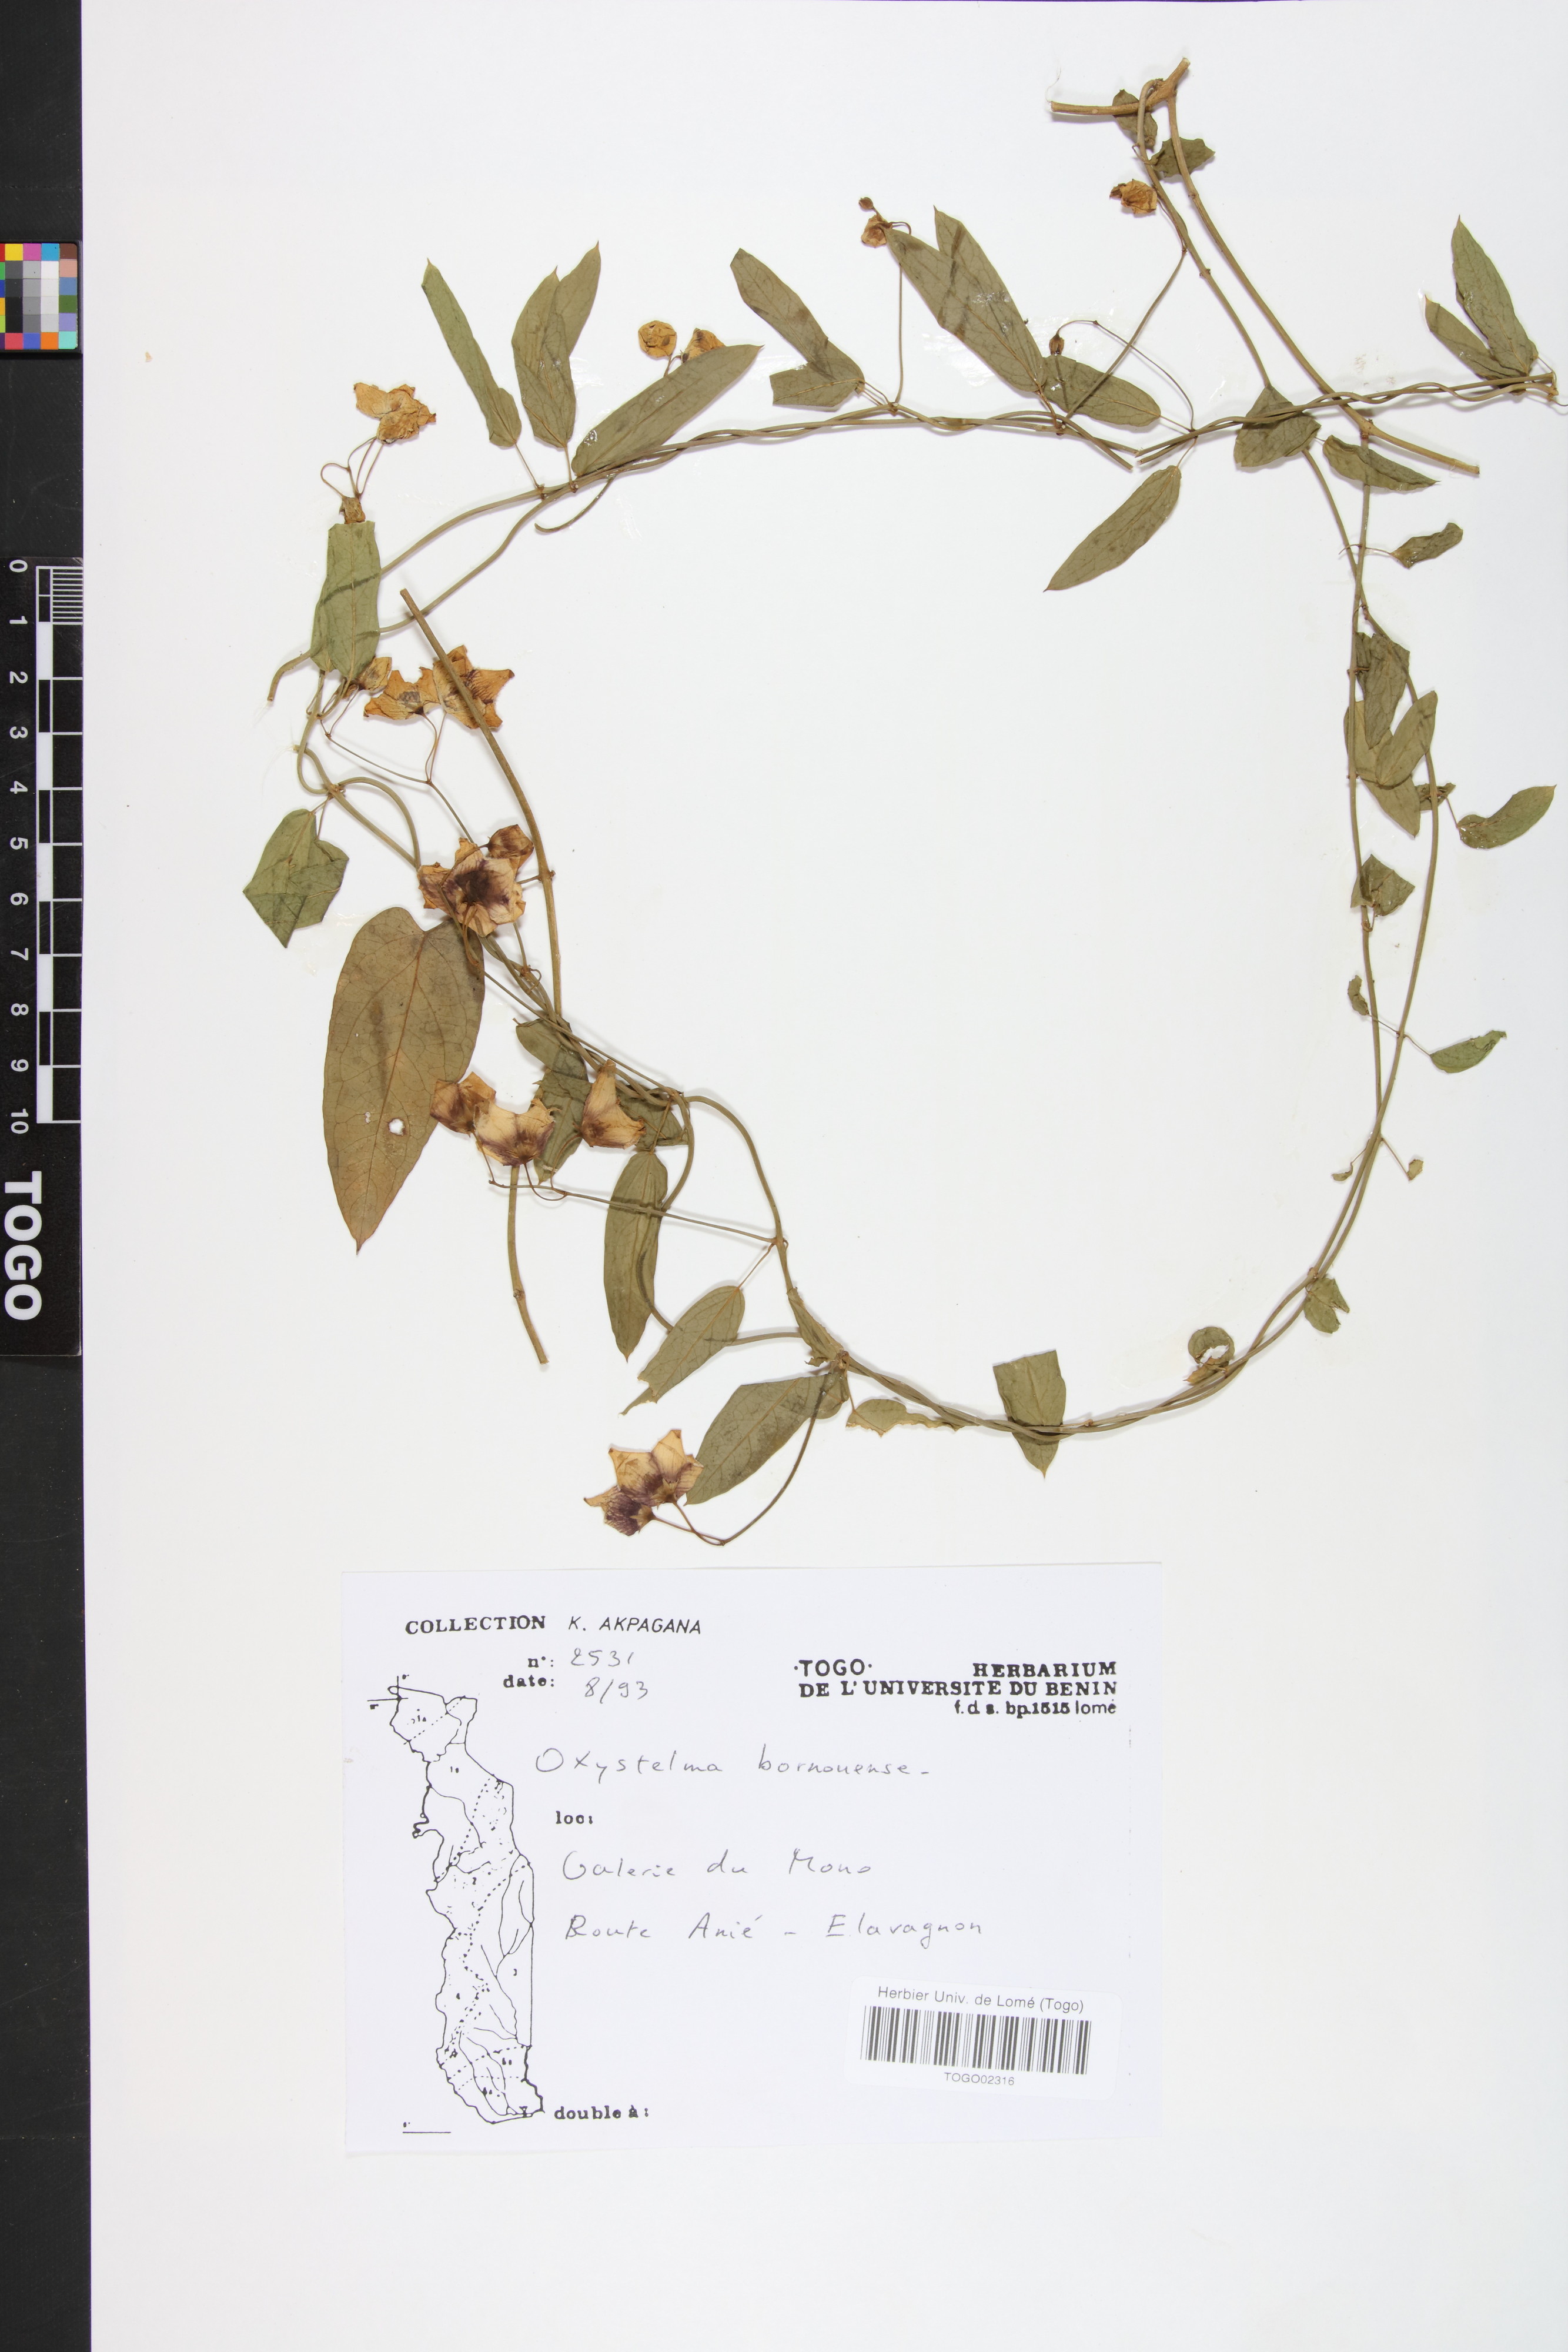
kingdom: Plantae
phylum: Tracheophyta
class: Magnoliopsida
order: Gentianales
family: Apocynaceae
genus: Oxystelma
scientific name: Oxystelma bornouense
